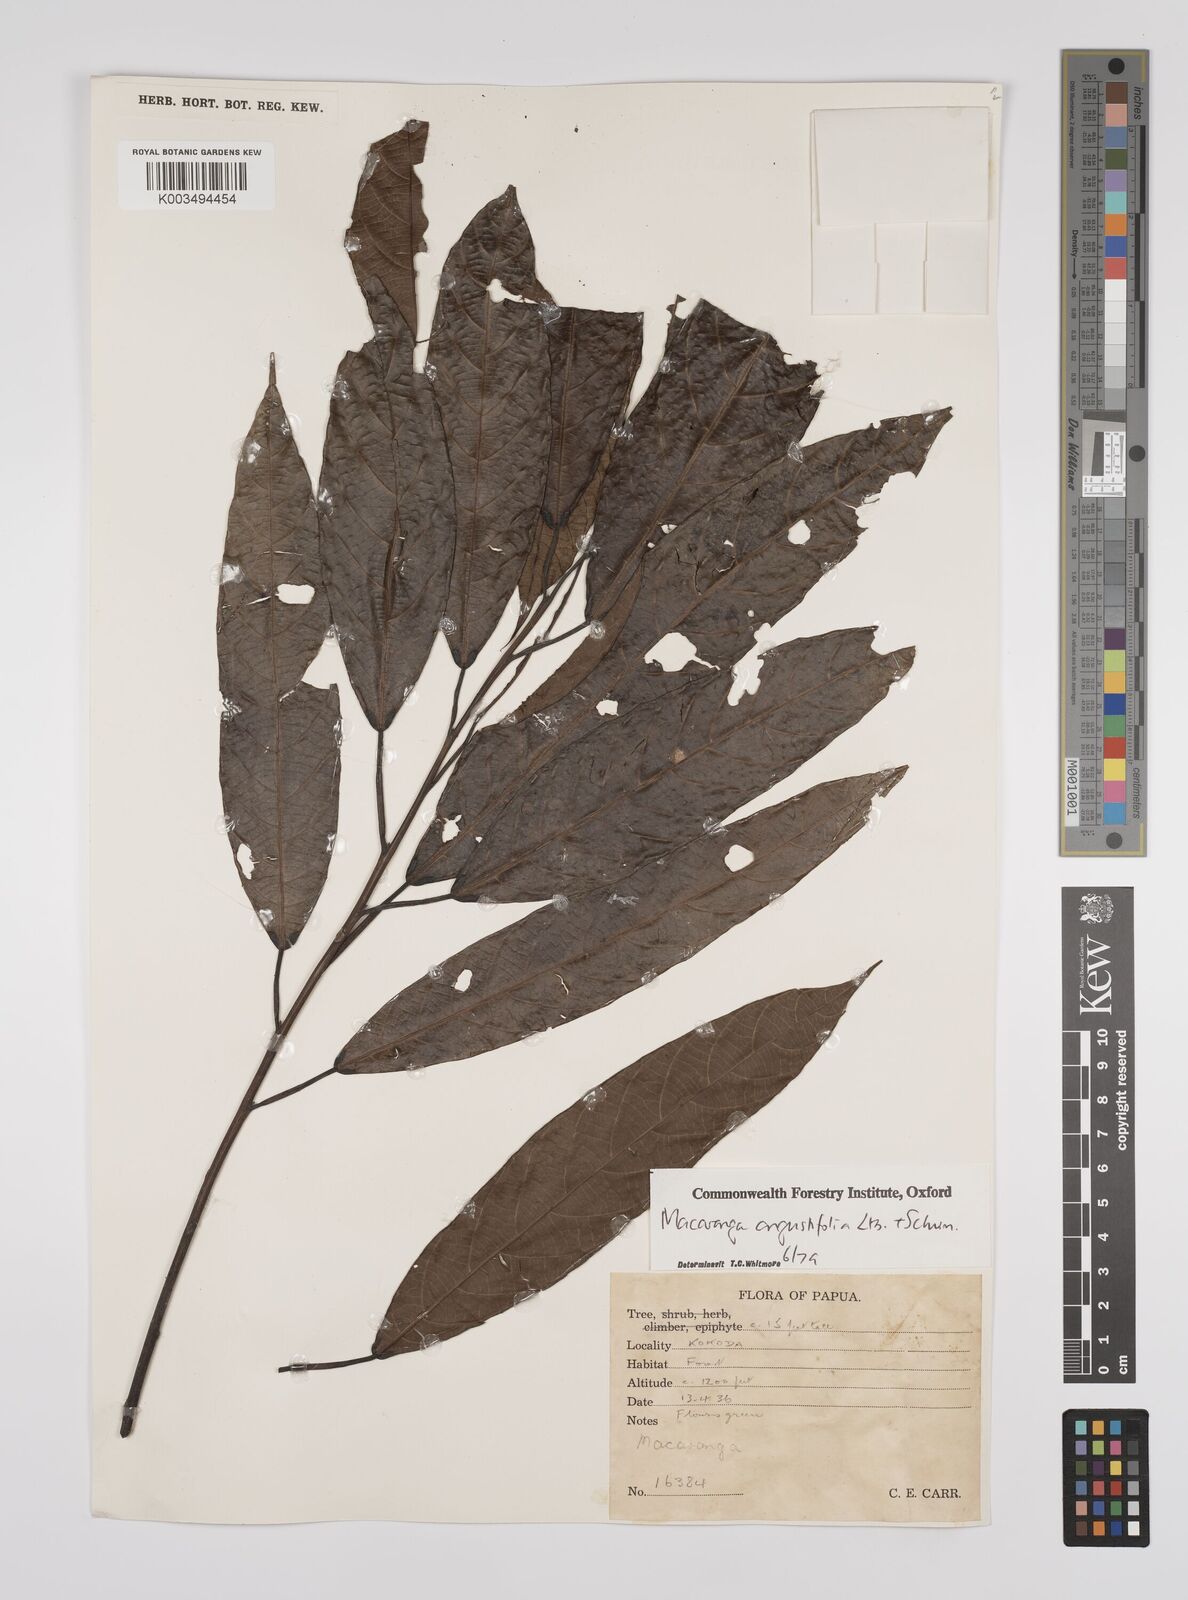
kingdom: Plantae
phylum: Tracheophyta
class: Magnoliopsida
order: Malpighiales
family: Euphorbiaceae
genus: Macaranga
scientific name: Macaranga angustifolia
